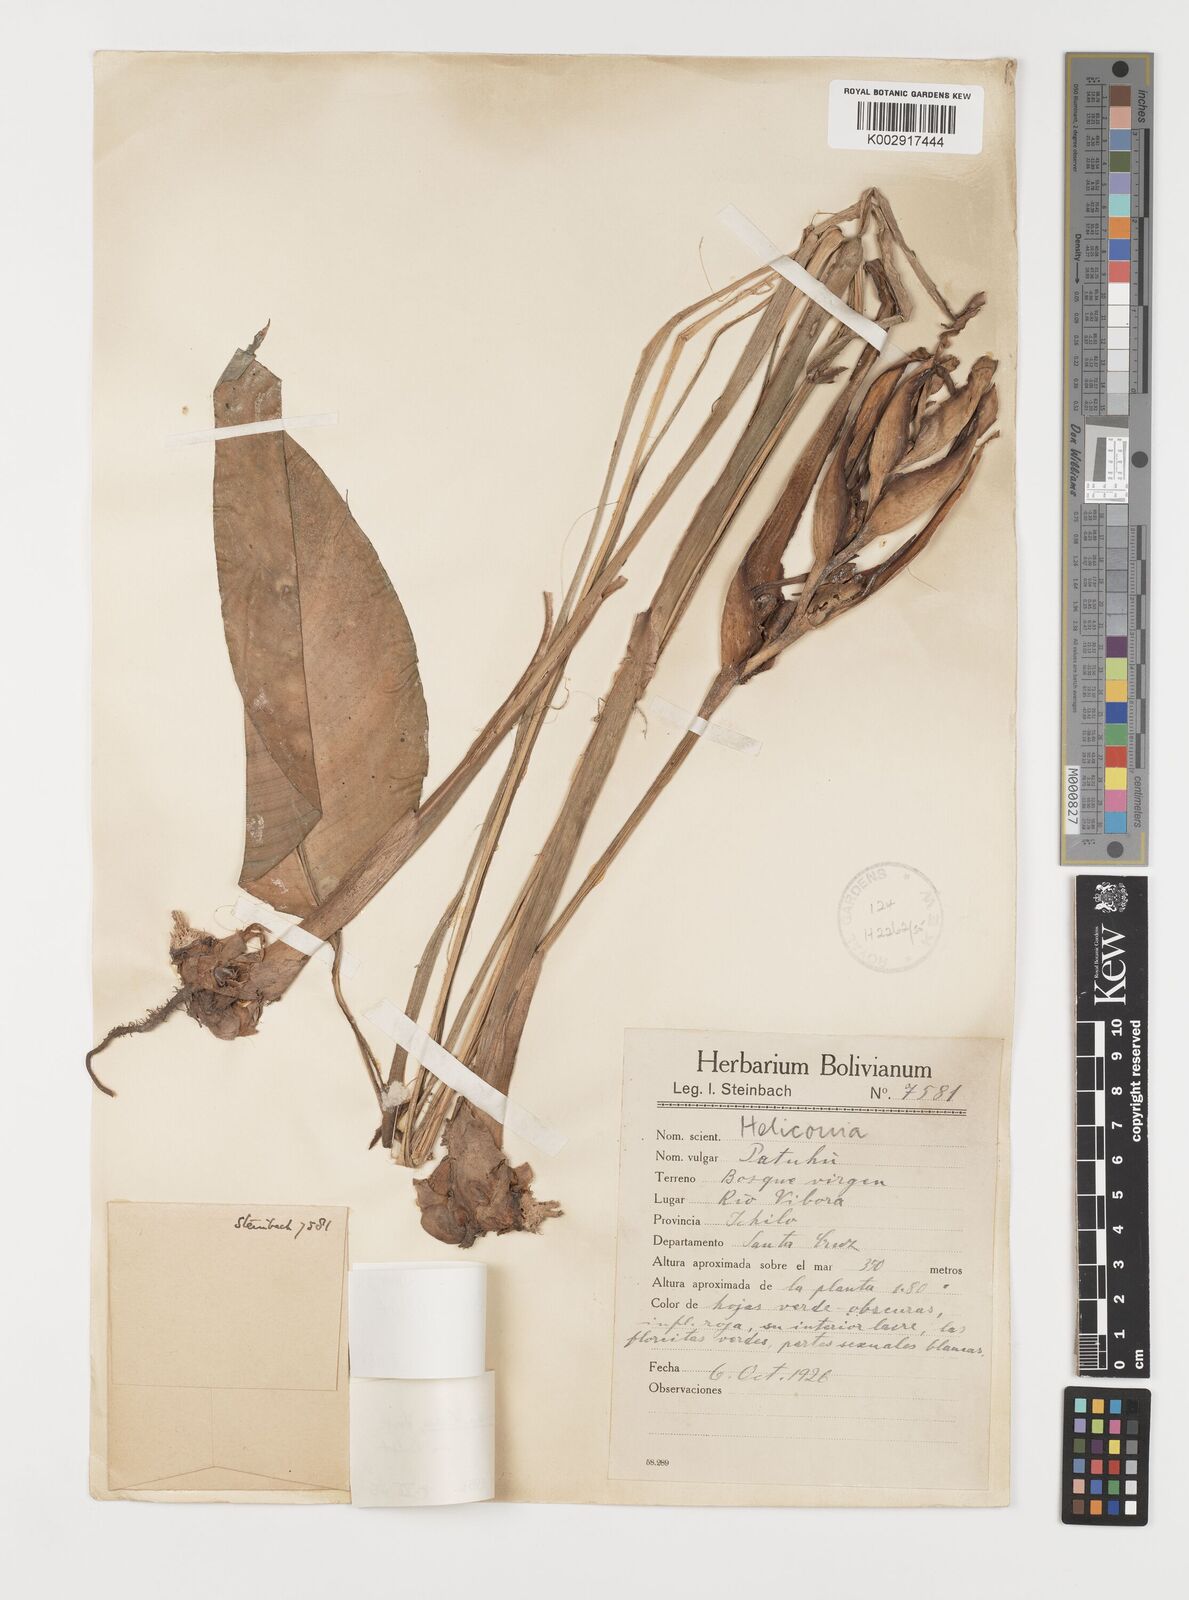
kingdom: Plantae
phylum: Tracheophyta
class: Liliopsida
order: Zingiberales
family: Heliconiaceae
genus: Heliconia
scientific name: Heliconia densiflora
